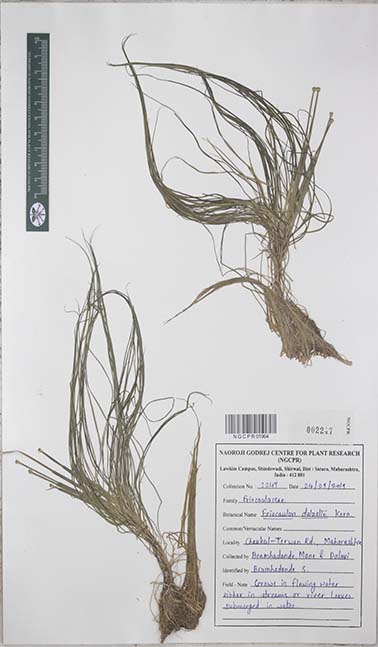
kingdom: Plantae
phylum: Tracheophyta
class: Liliopsida
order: Poales
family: Eriocaulaceae
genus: Eriocaulon
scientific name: Eriocaulon dalzellii
